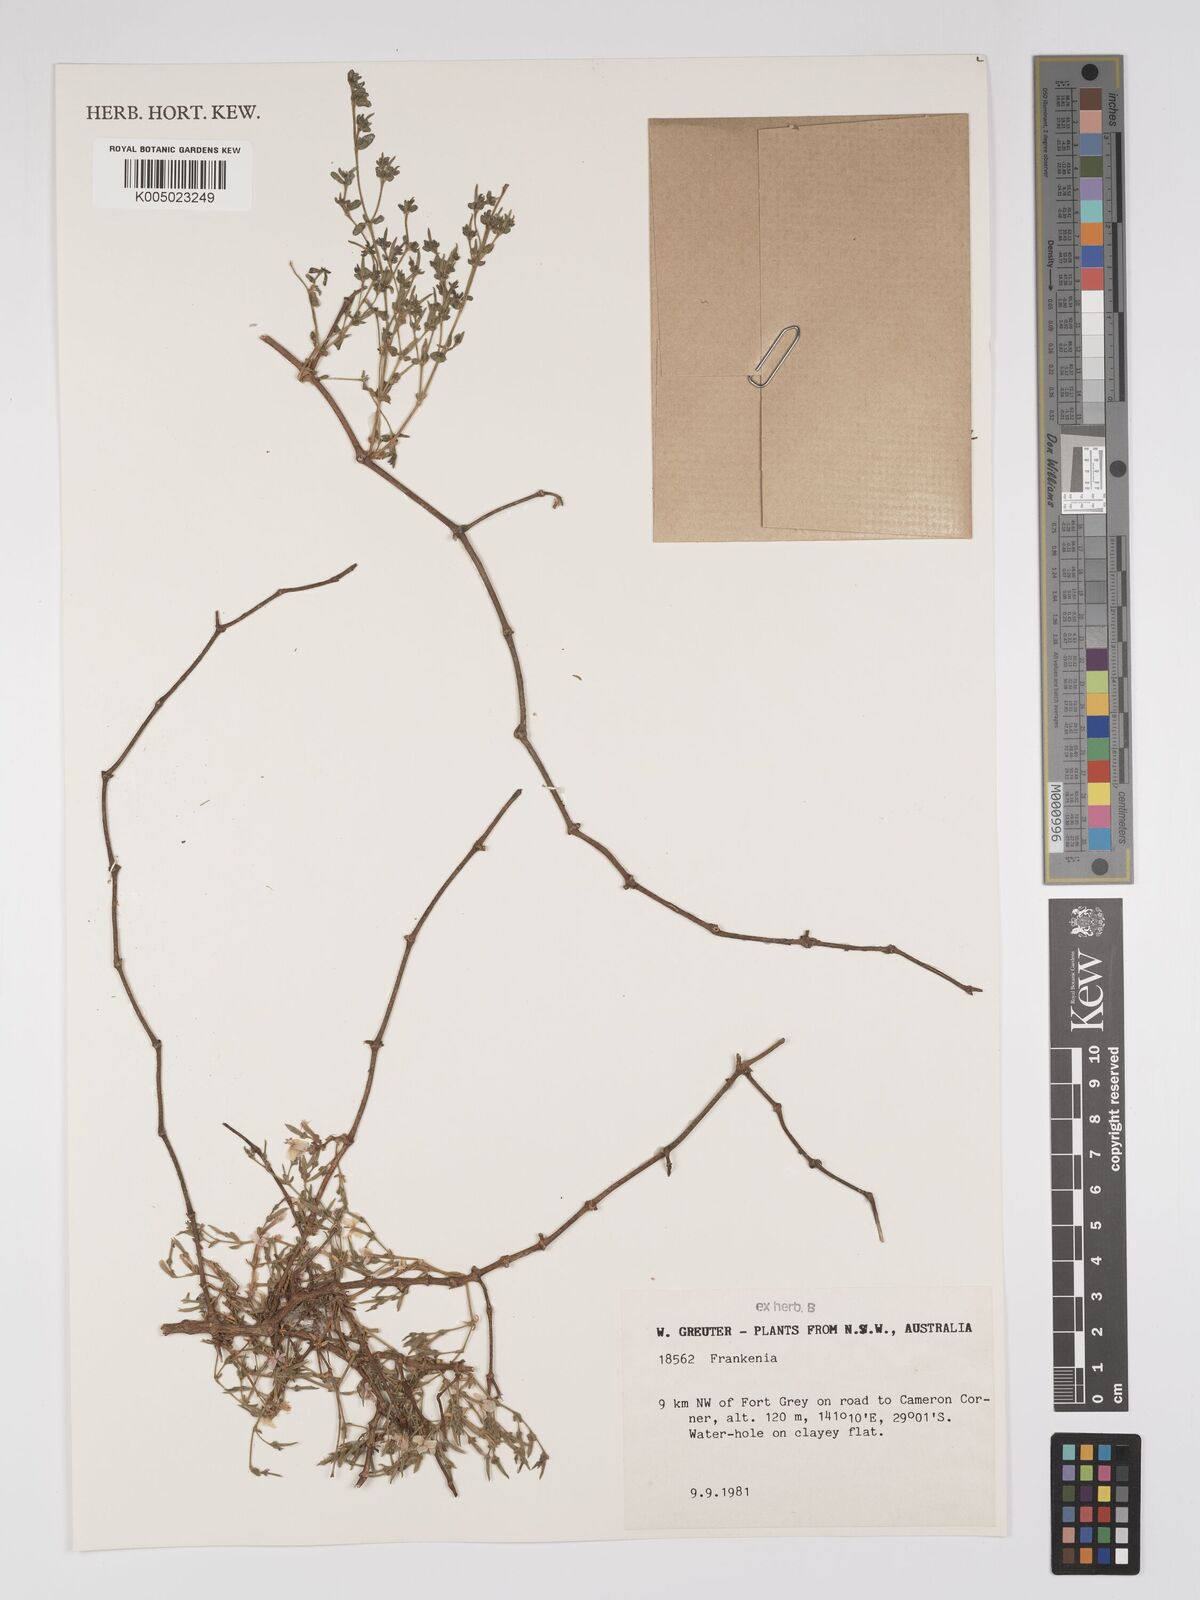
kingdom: Plantae
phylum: Tracheophyta
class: Magnoliopsida
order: Caryophyllales
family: Frankeniaceae
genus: Frankenia
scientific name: Frankenia
